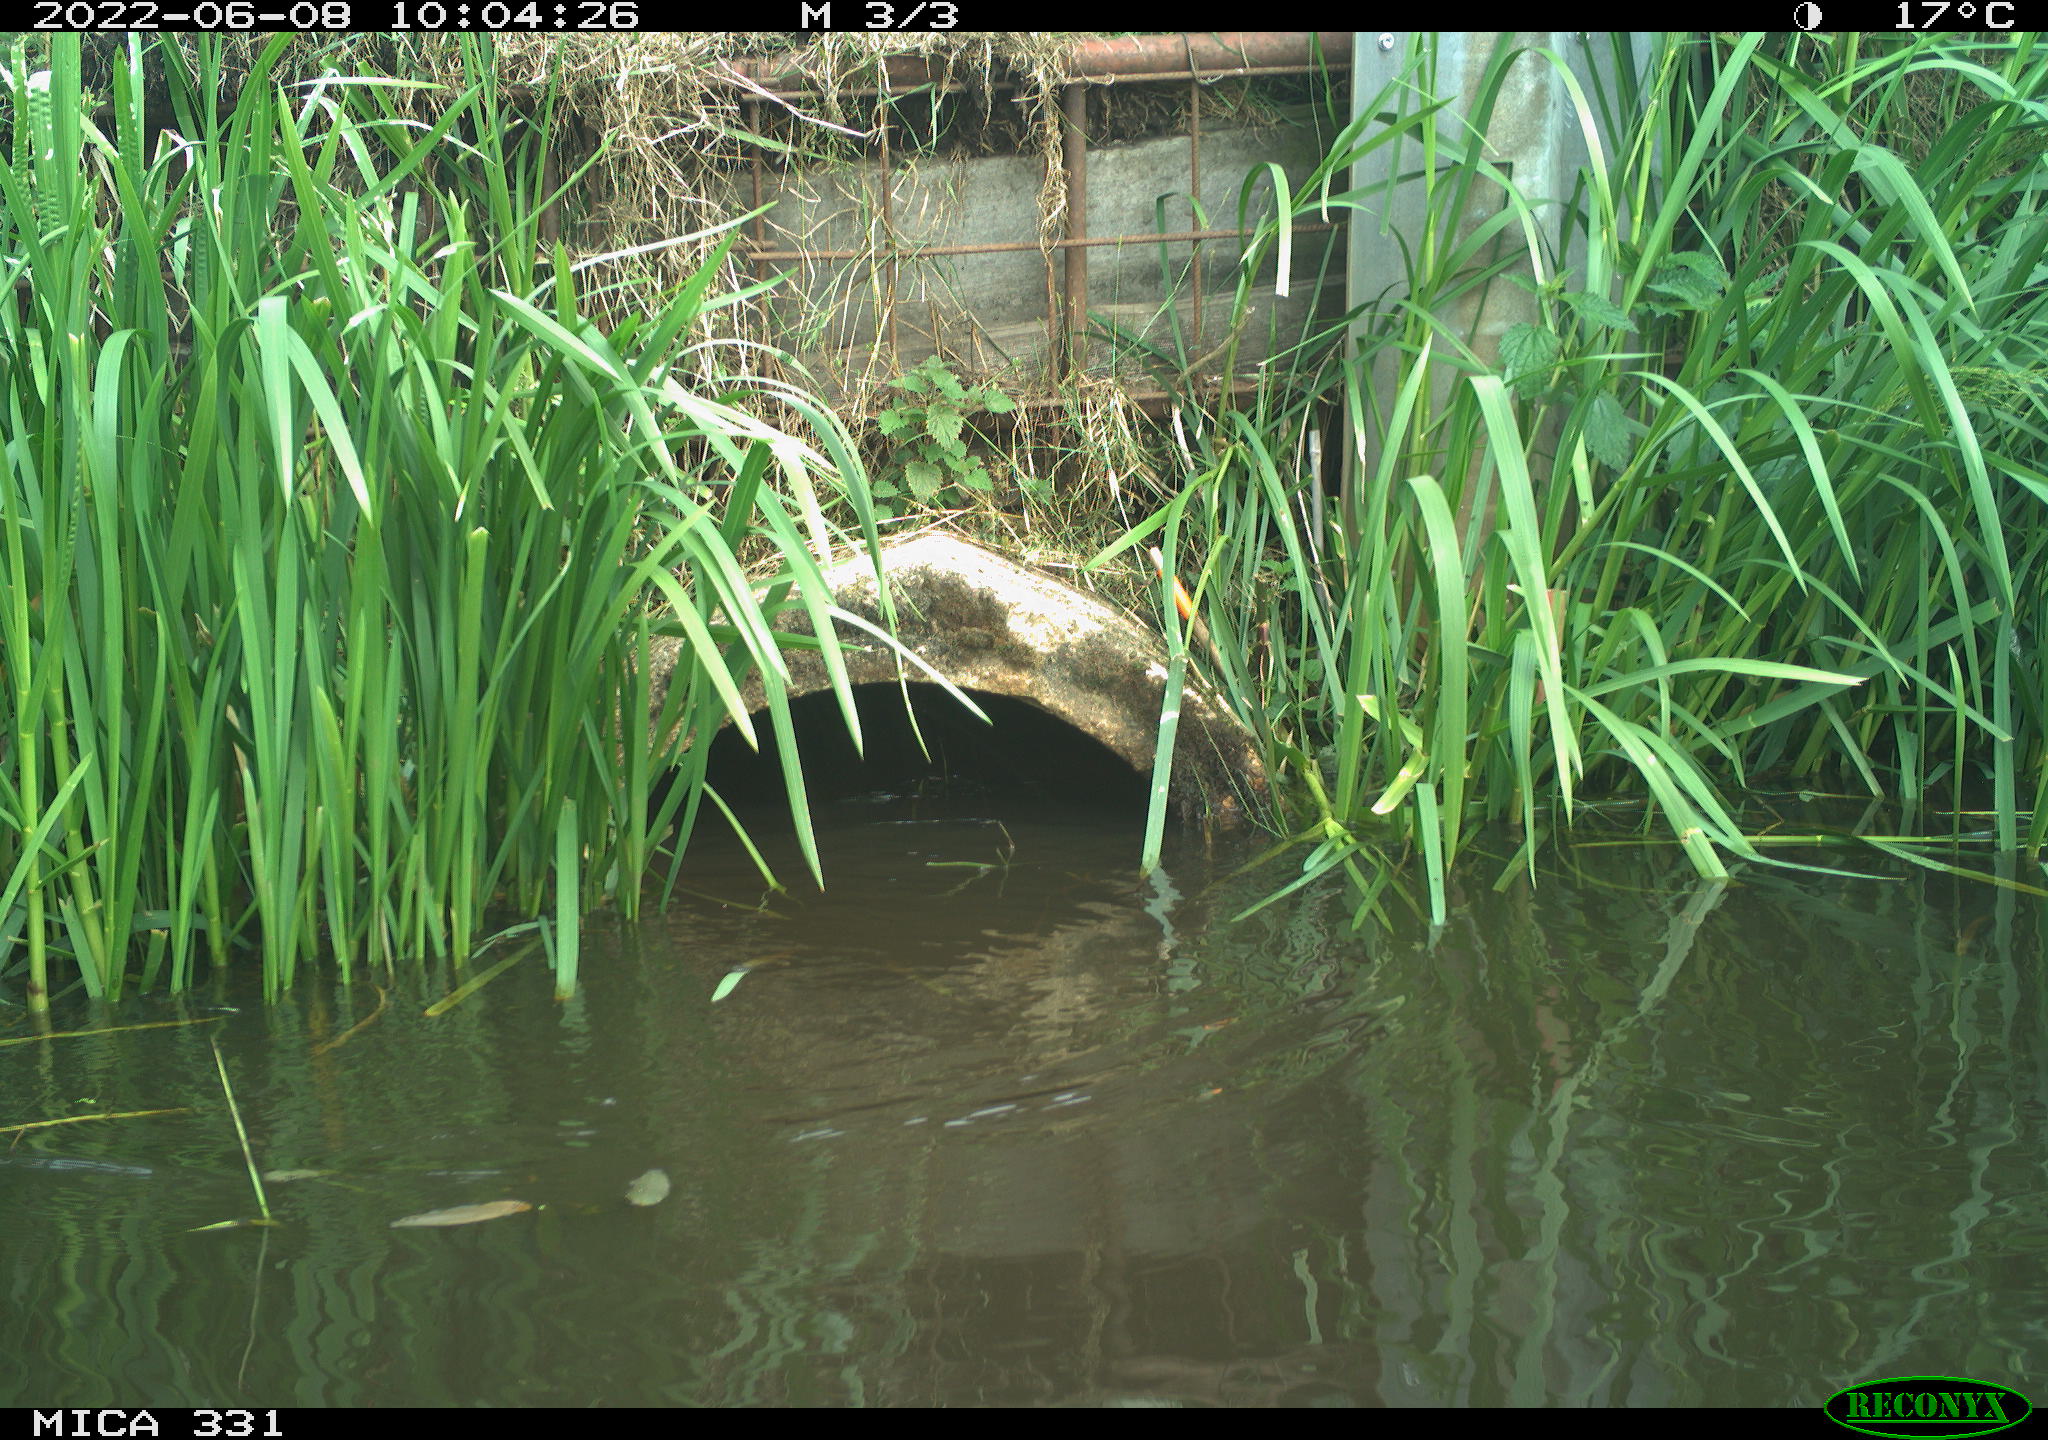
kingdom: Animalia
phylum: Chordata
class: Aves
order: Gruiformes
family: Rallidae
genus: Fulica
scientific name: Fulica atra
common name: Eurasian coot
